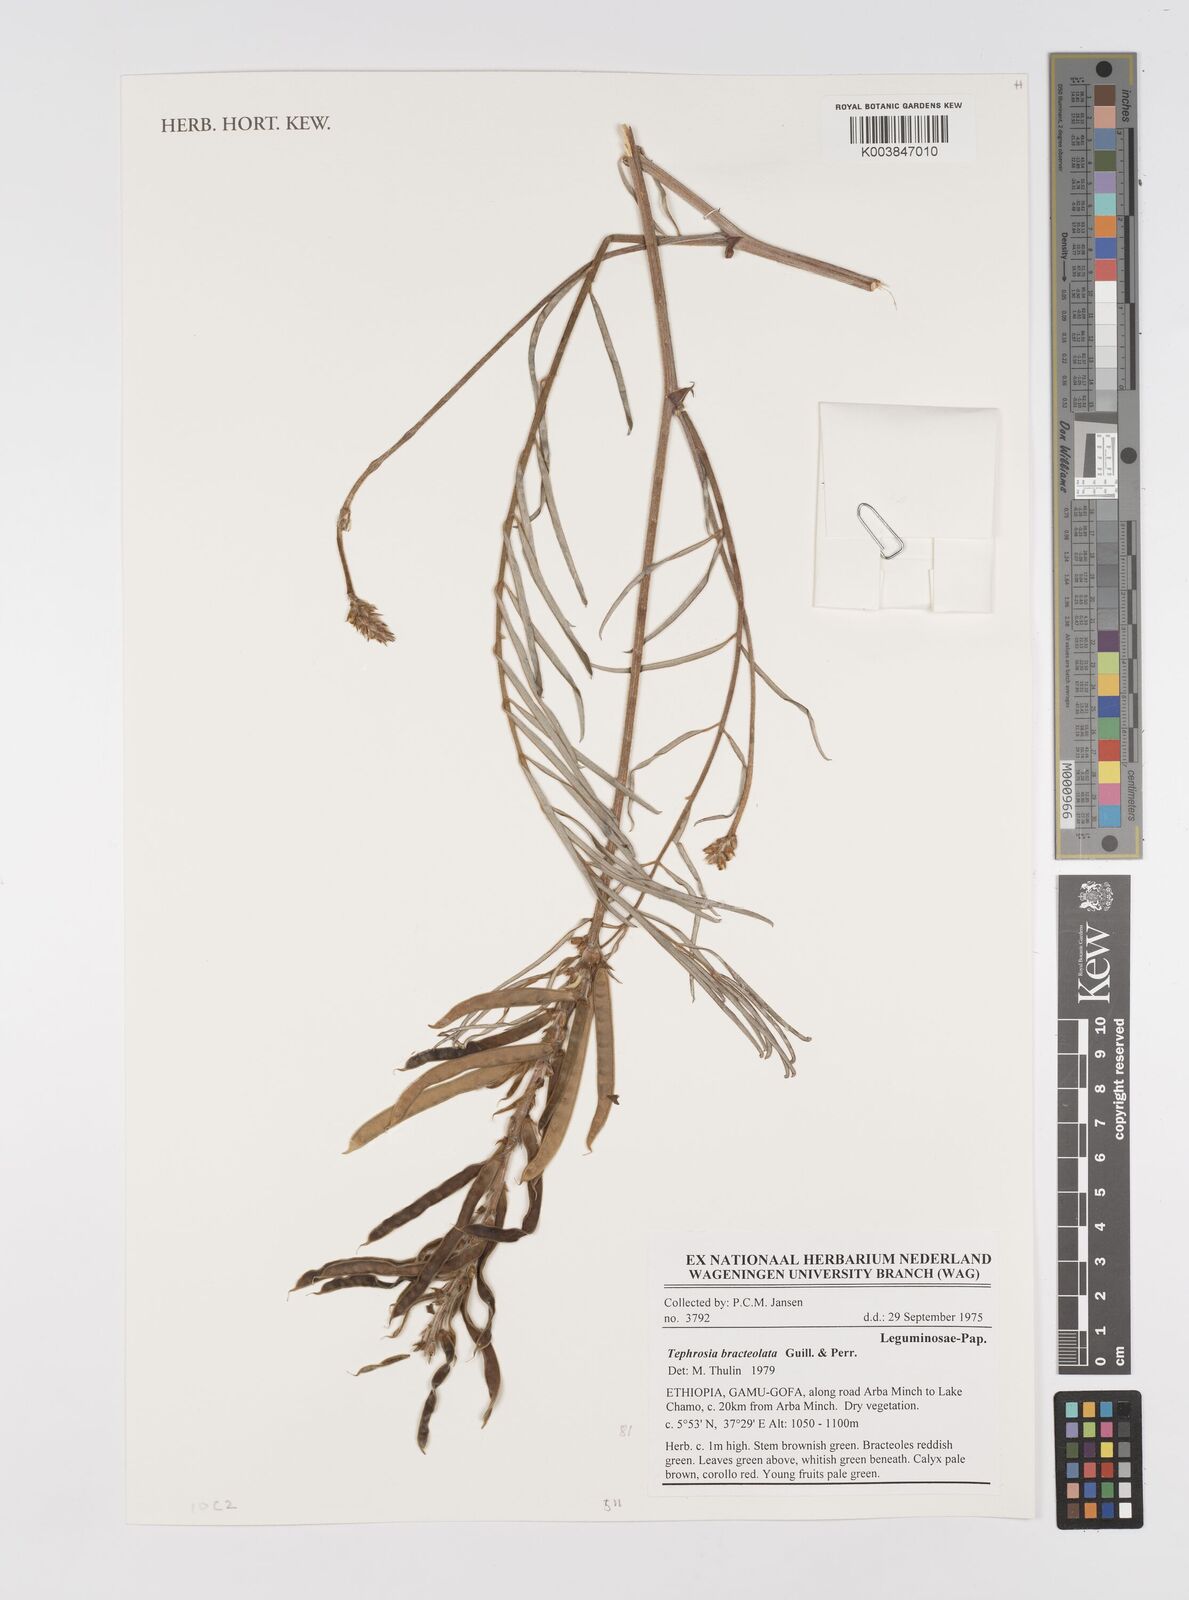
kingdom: Plantae
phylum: Tracheophyta
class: Magnoliopsida
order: Fabales
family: Fabaceae
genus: Tephrosia
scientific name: Tephrosia bracteolata
